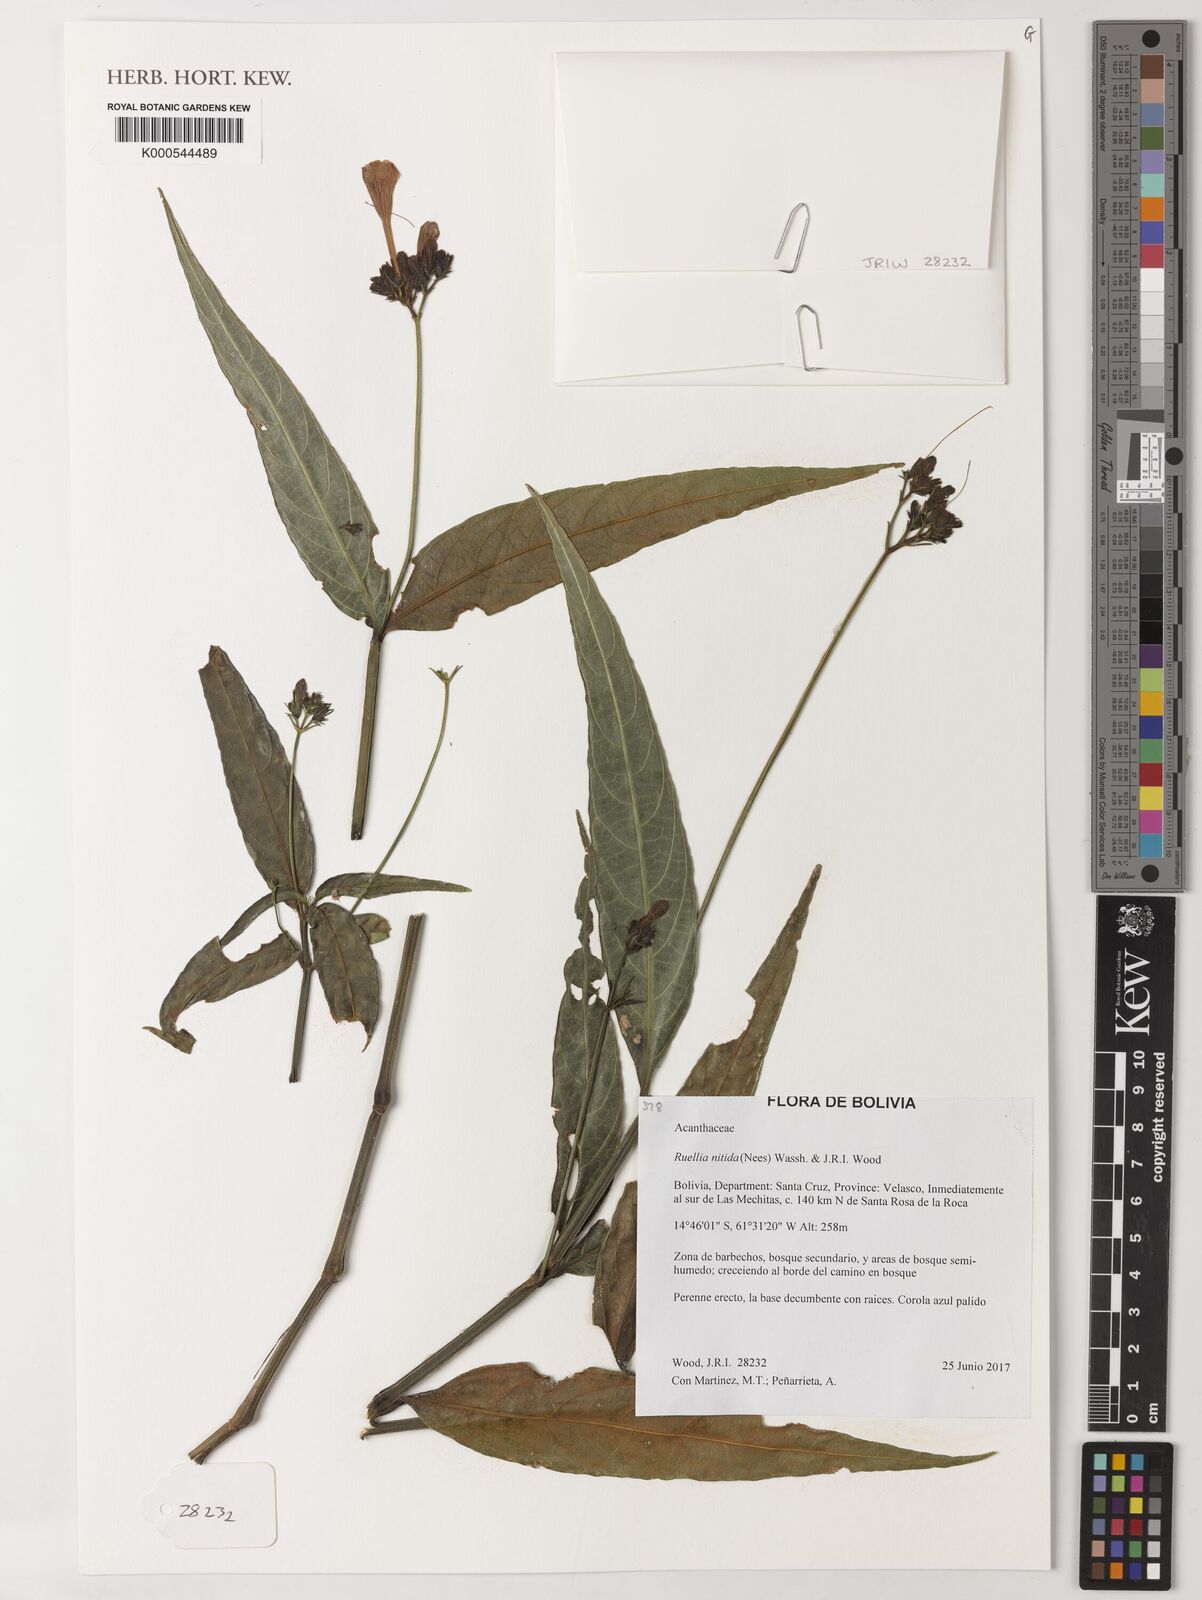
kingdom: Plantae
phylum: Tracheophyta
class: Magnoliopsida
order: Lamiales
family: Acanthaceae
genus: Ruellia
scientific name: Ruellia nitida
